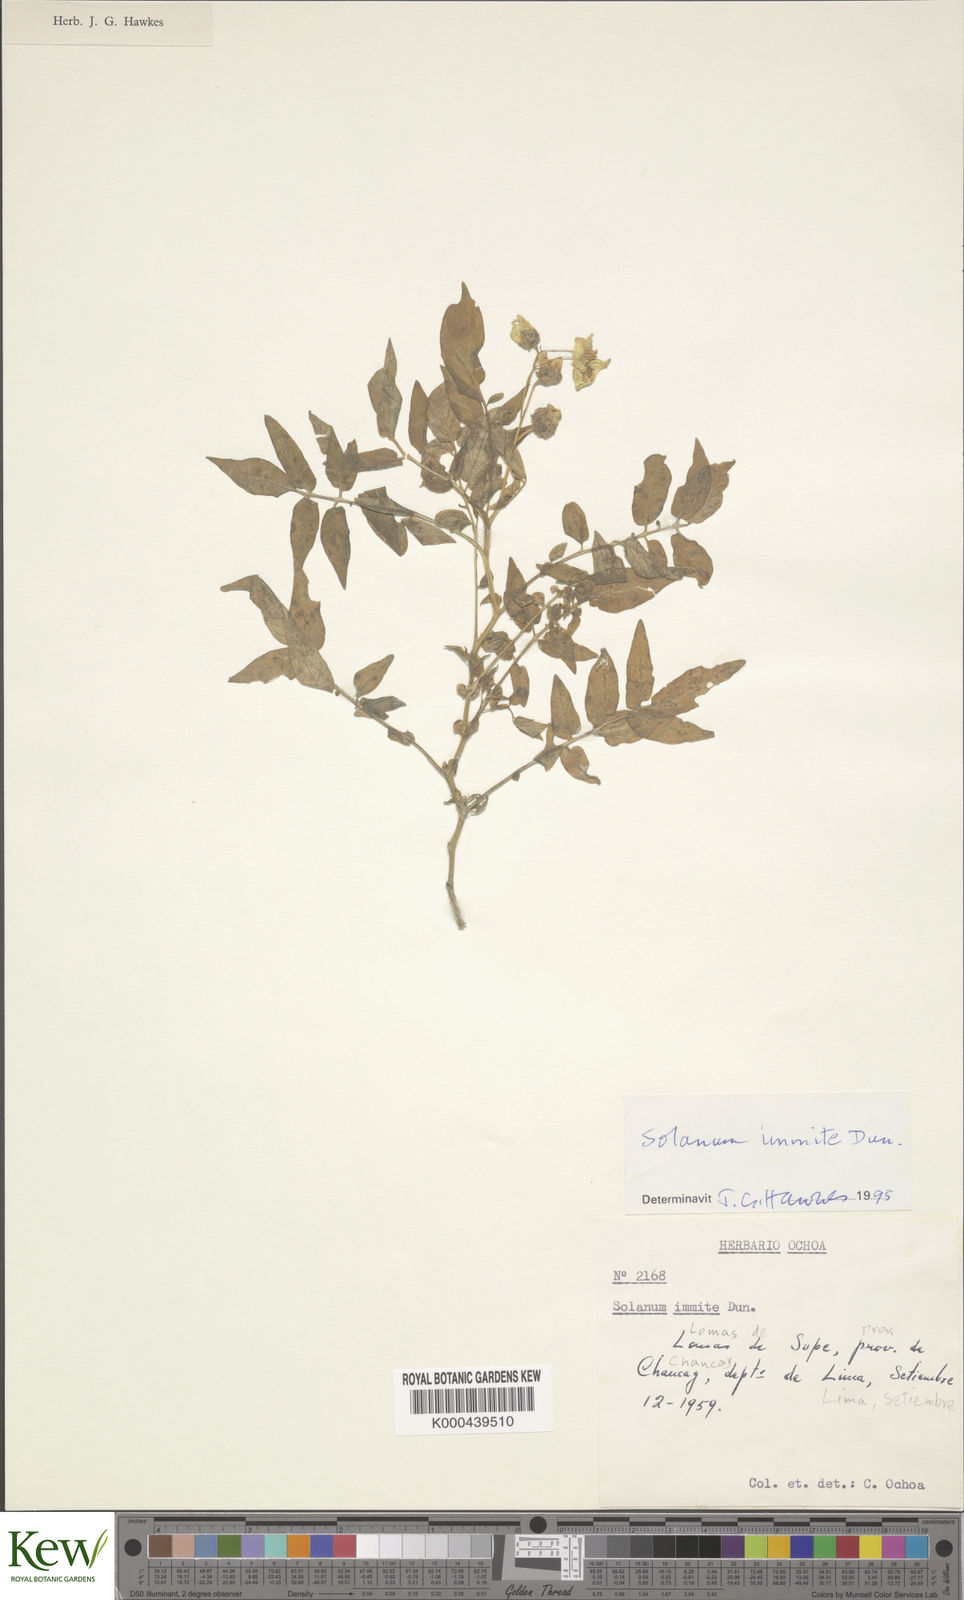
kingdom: Plantae
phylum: Tracheophyta
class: Magnoliopsida
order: Solanales
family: Solanaceae
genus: Solanum
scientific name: Solanum immite
